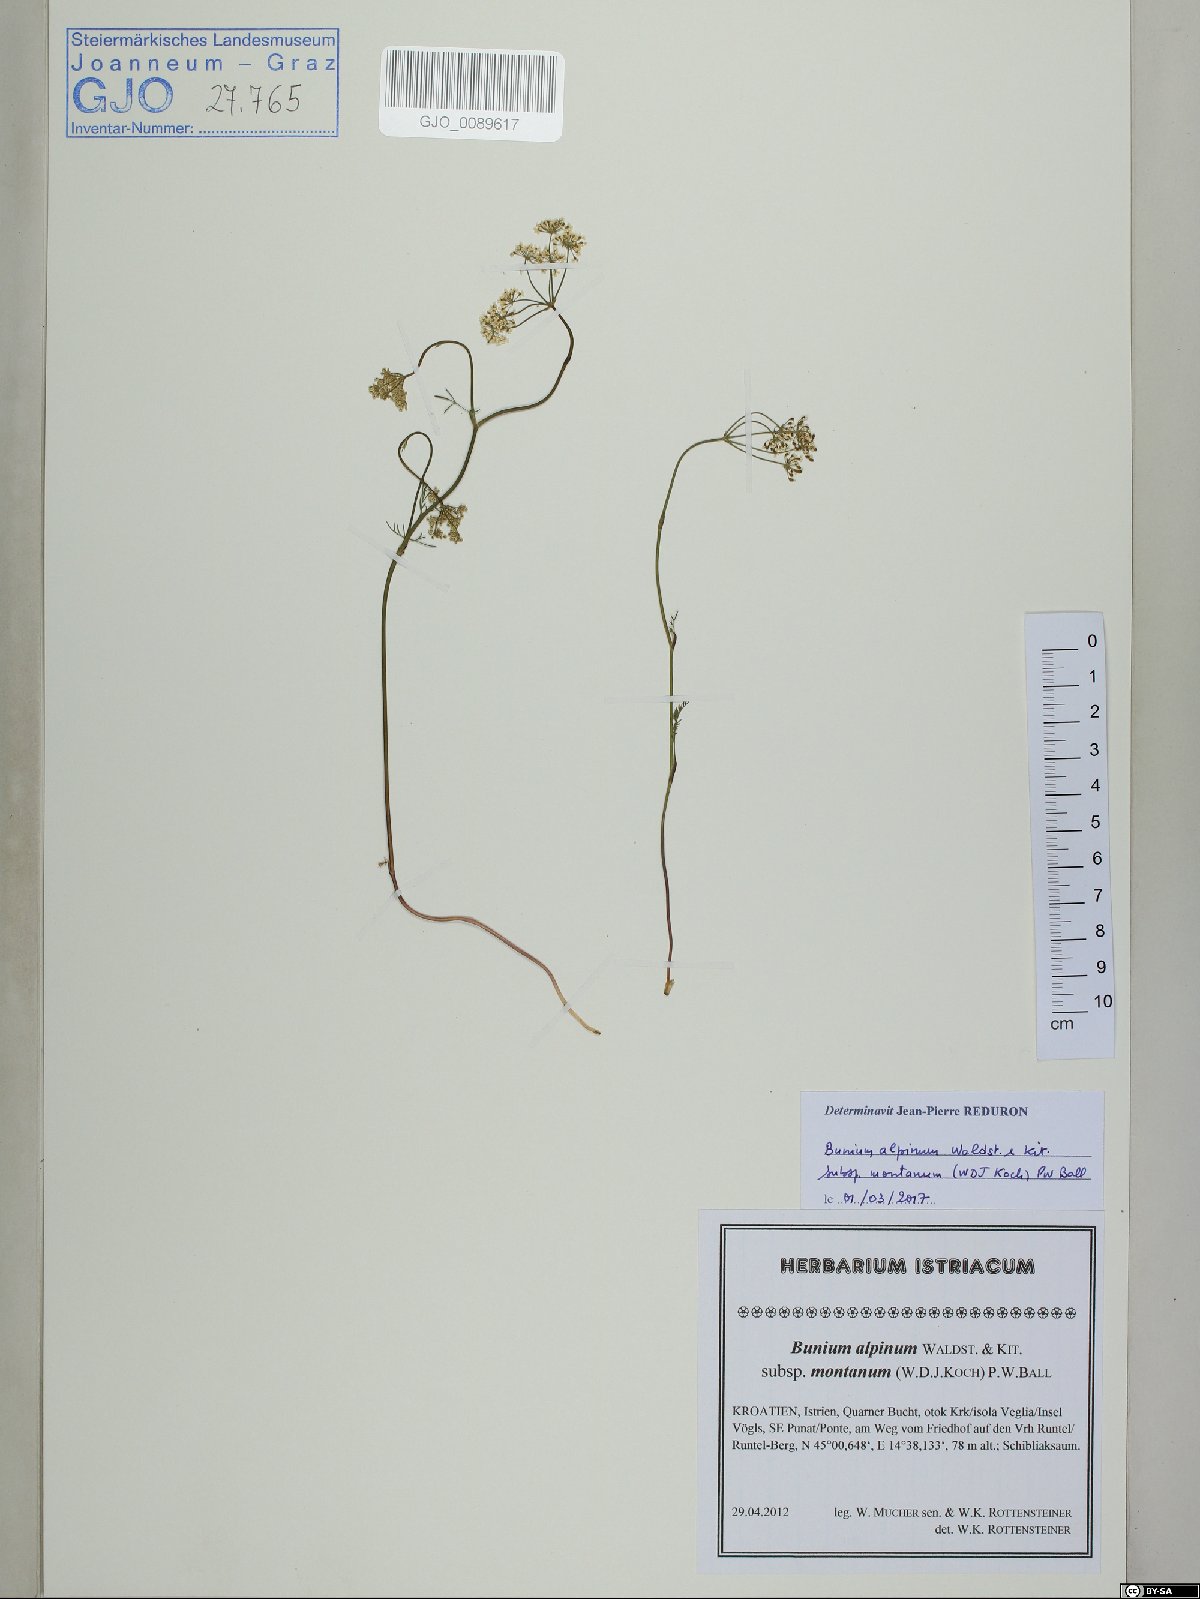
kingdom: Plantae
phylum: Tracheophyta
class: Magnoliopsida
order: Apiales
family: Apiaceae
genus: Bunium
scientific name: Bunium alpinum
